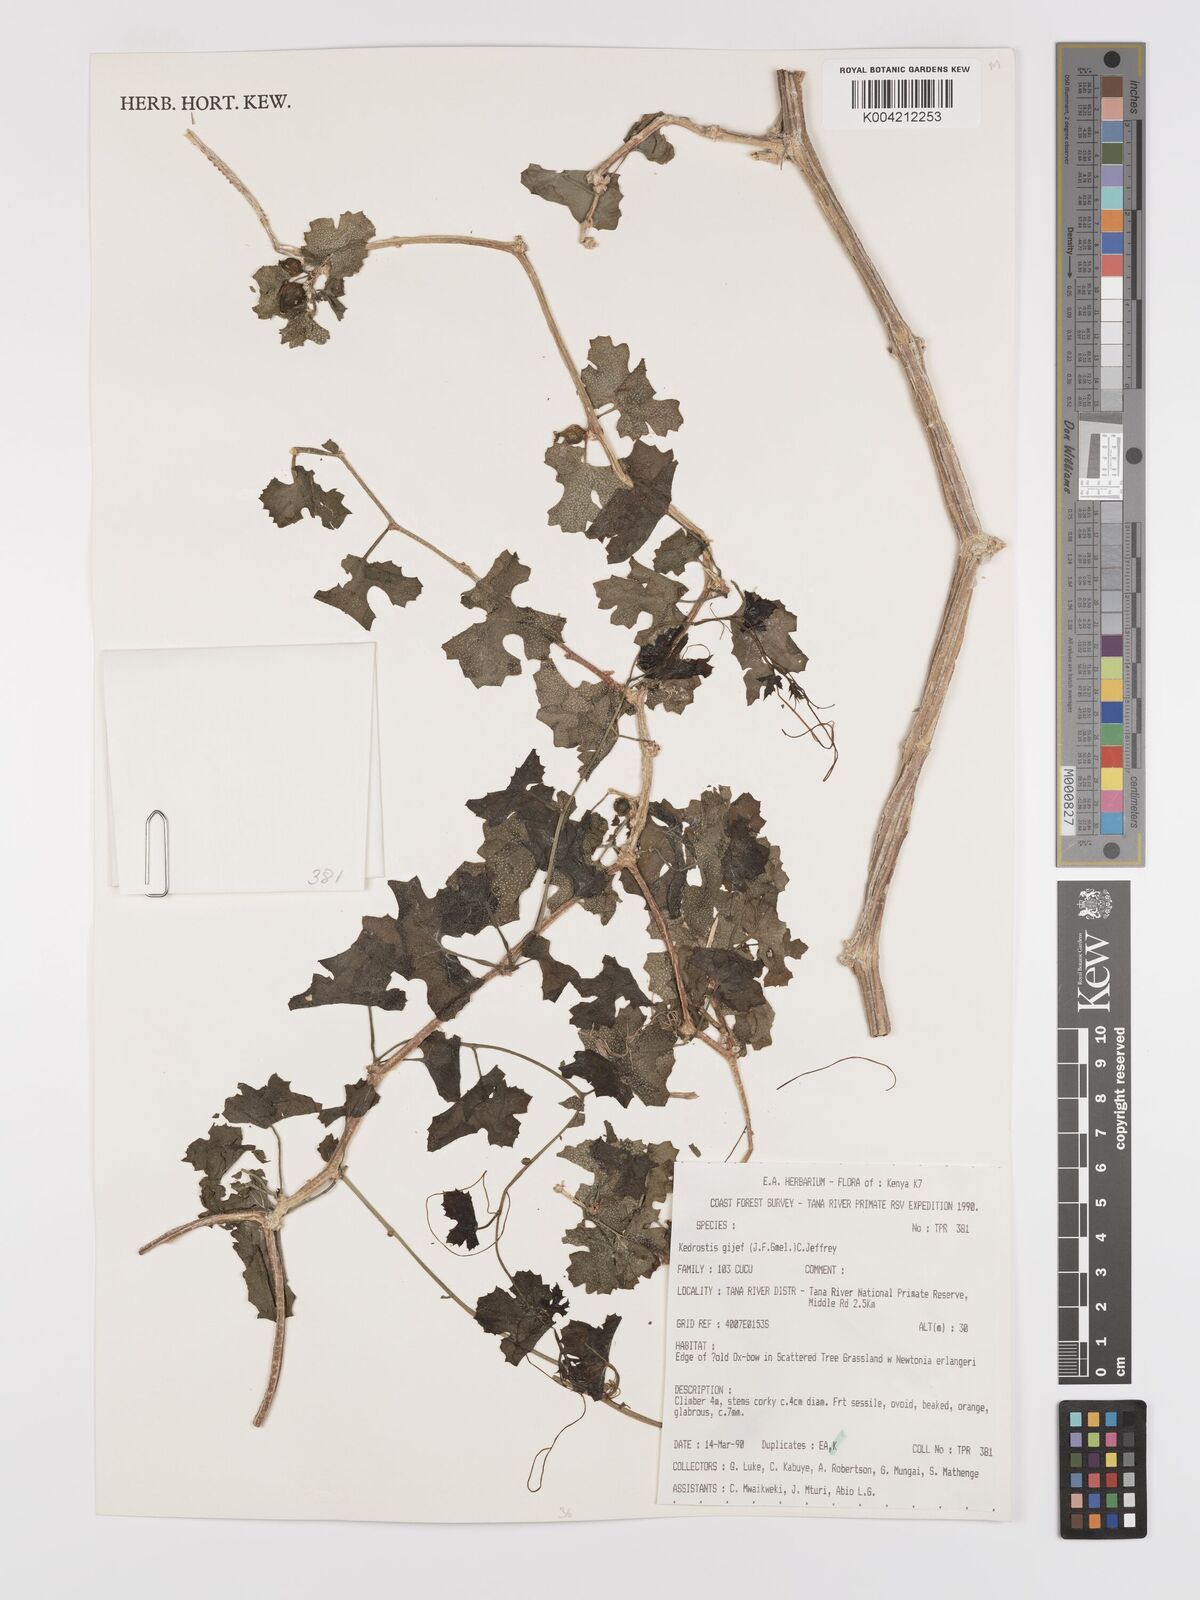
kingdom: Plantae
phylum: Tracheophyta
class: Magnoliopsida
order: Cucurbitales
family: Cucurbitaceae
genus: Kedrostis
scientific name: Kedrostis gijef
